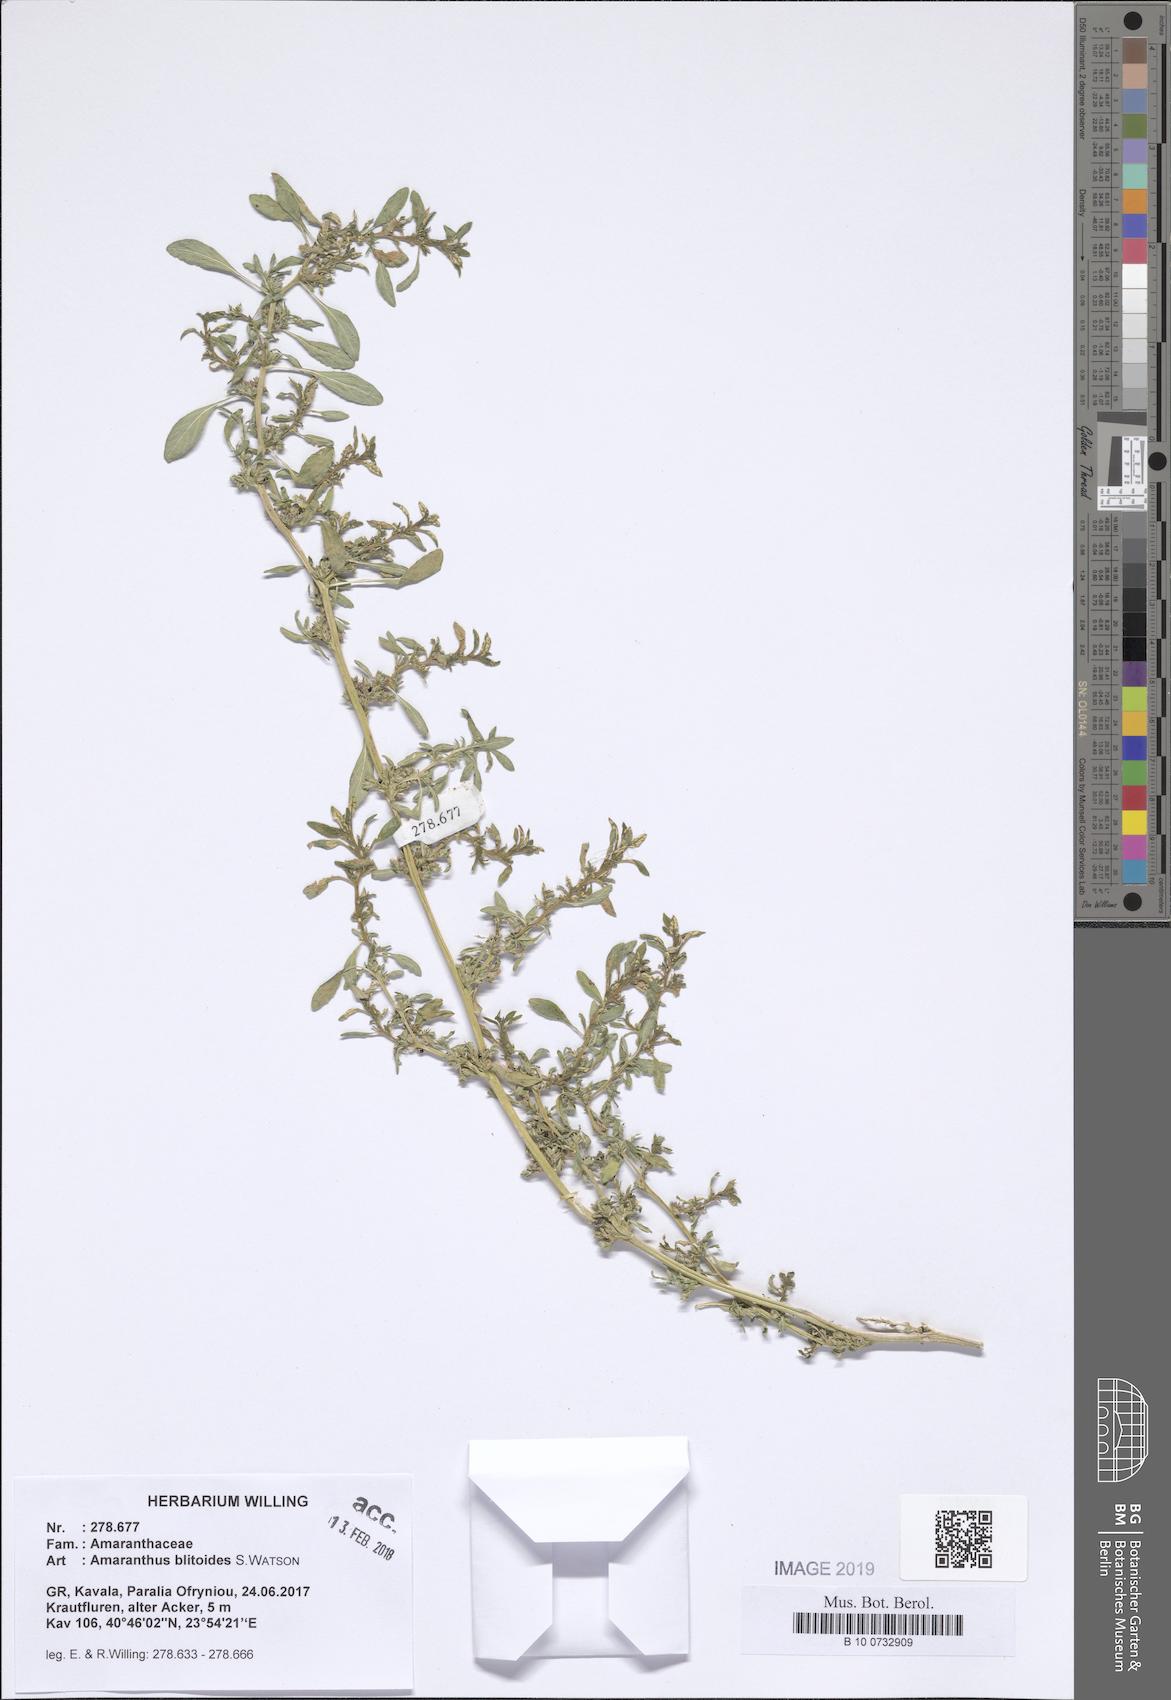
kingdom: Plantae
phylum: Tracheophyta
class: Magnoliopsida
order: Caryophyllales
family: Amaranthaceae
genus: Amaranthus
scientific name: Amaranthus blitoides
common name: Prostrate pigweed
